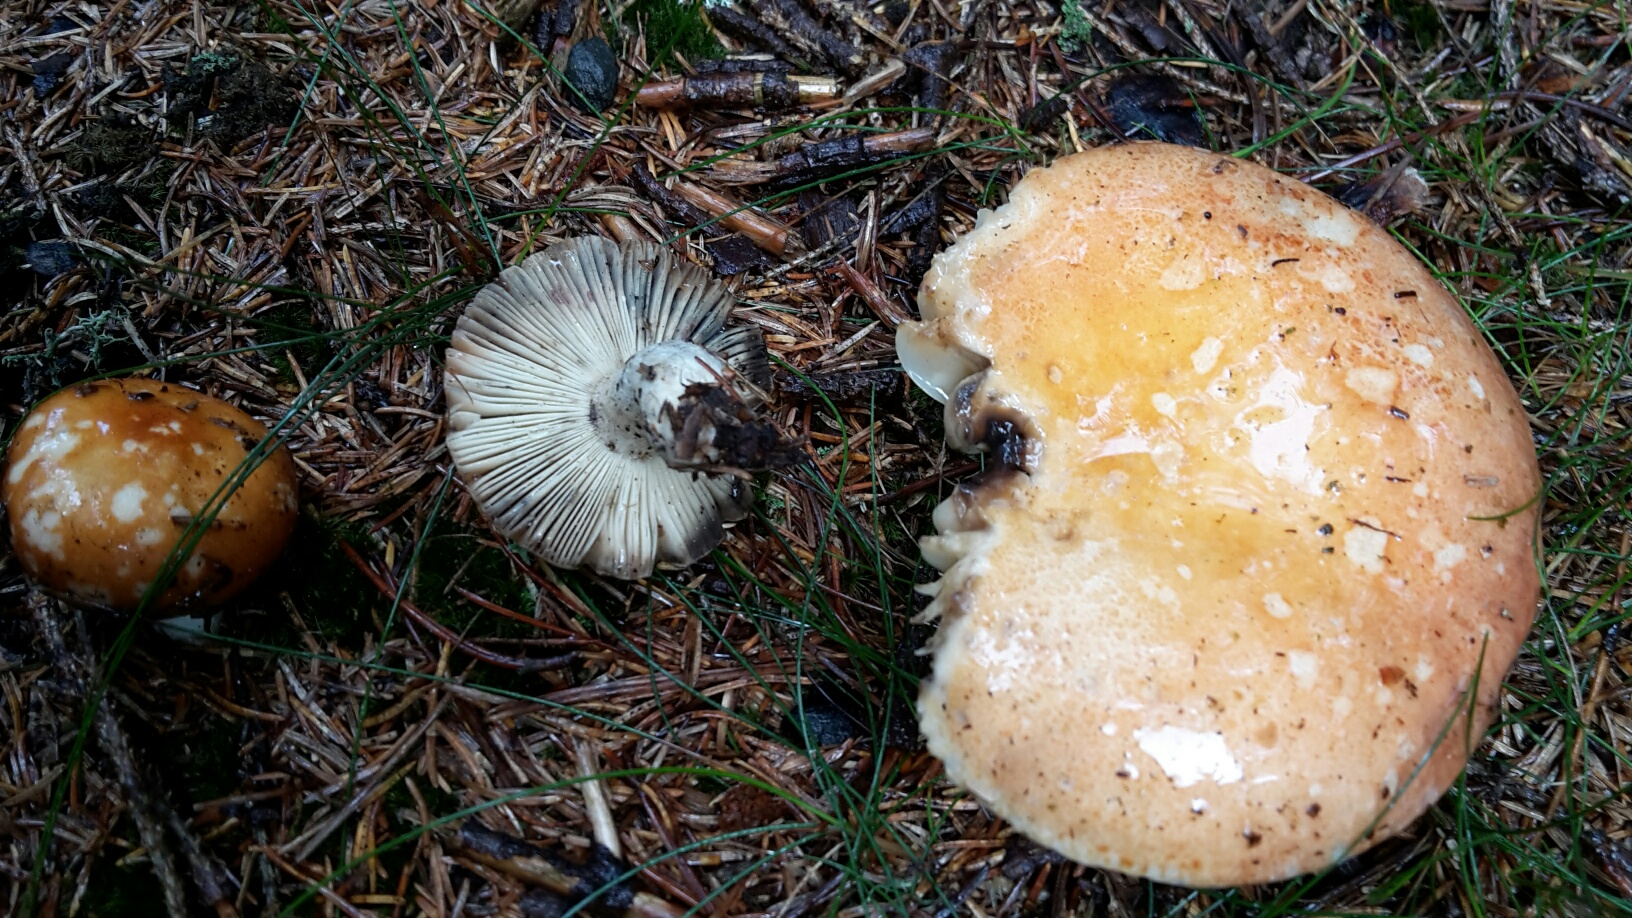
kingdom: Fungi
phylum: Basidiomycota
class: Agaricomycetes
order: Russulales
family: Russulaceae
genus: Russula
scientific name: Russula decolorans
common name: afblegende skørhat
